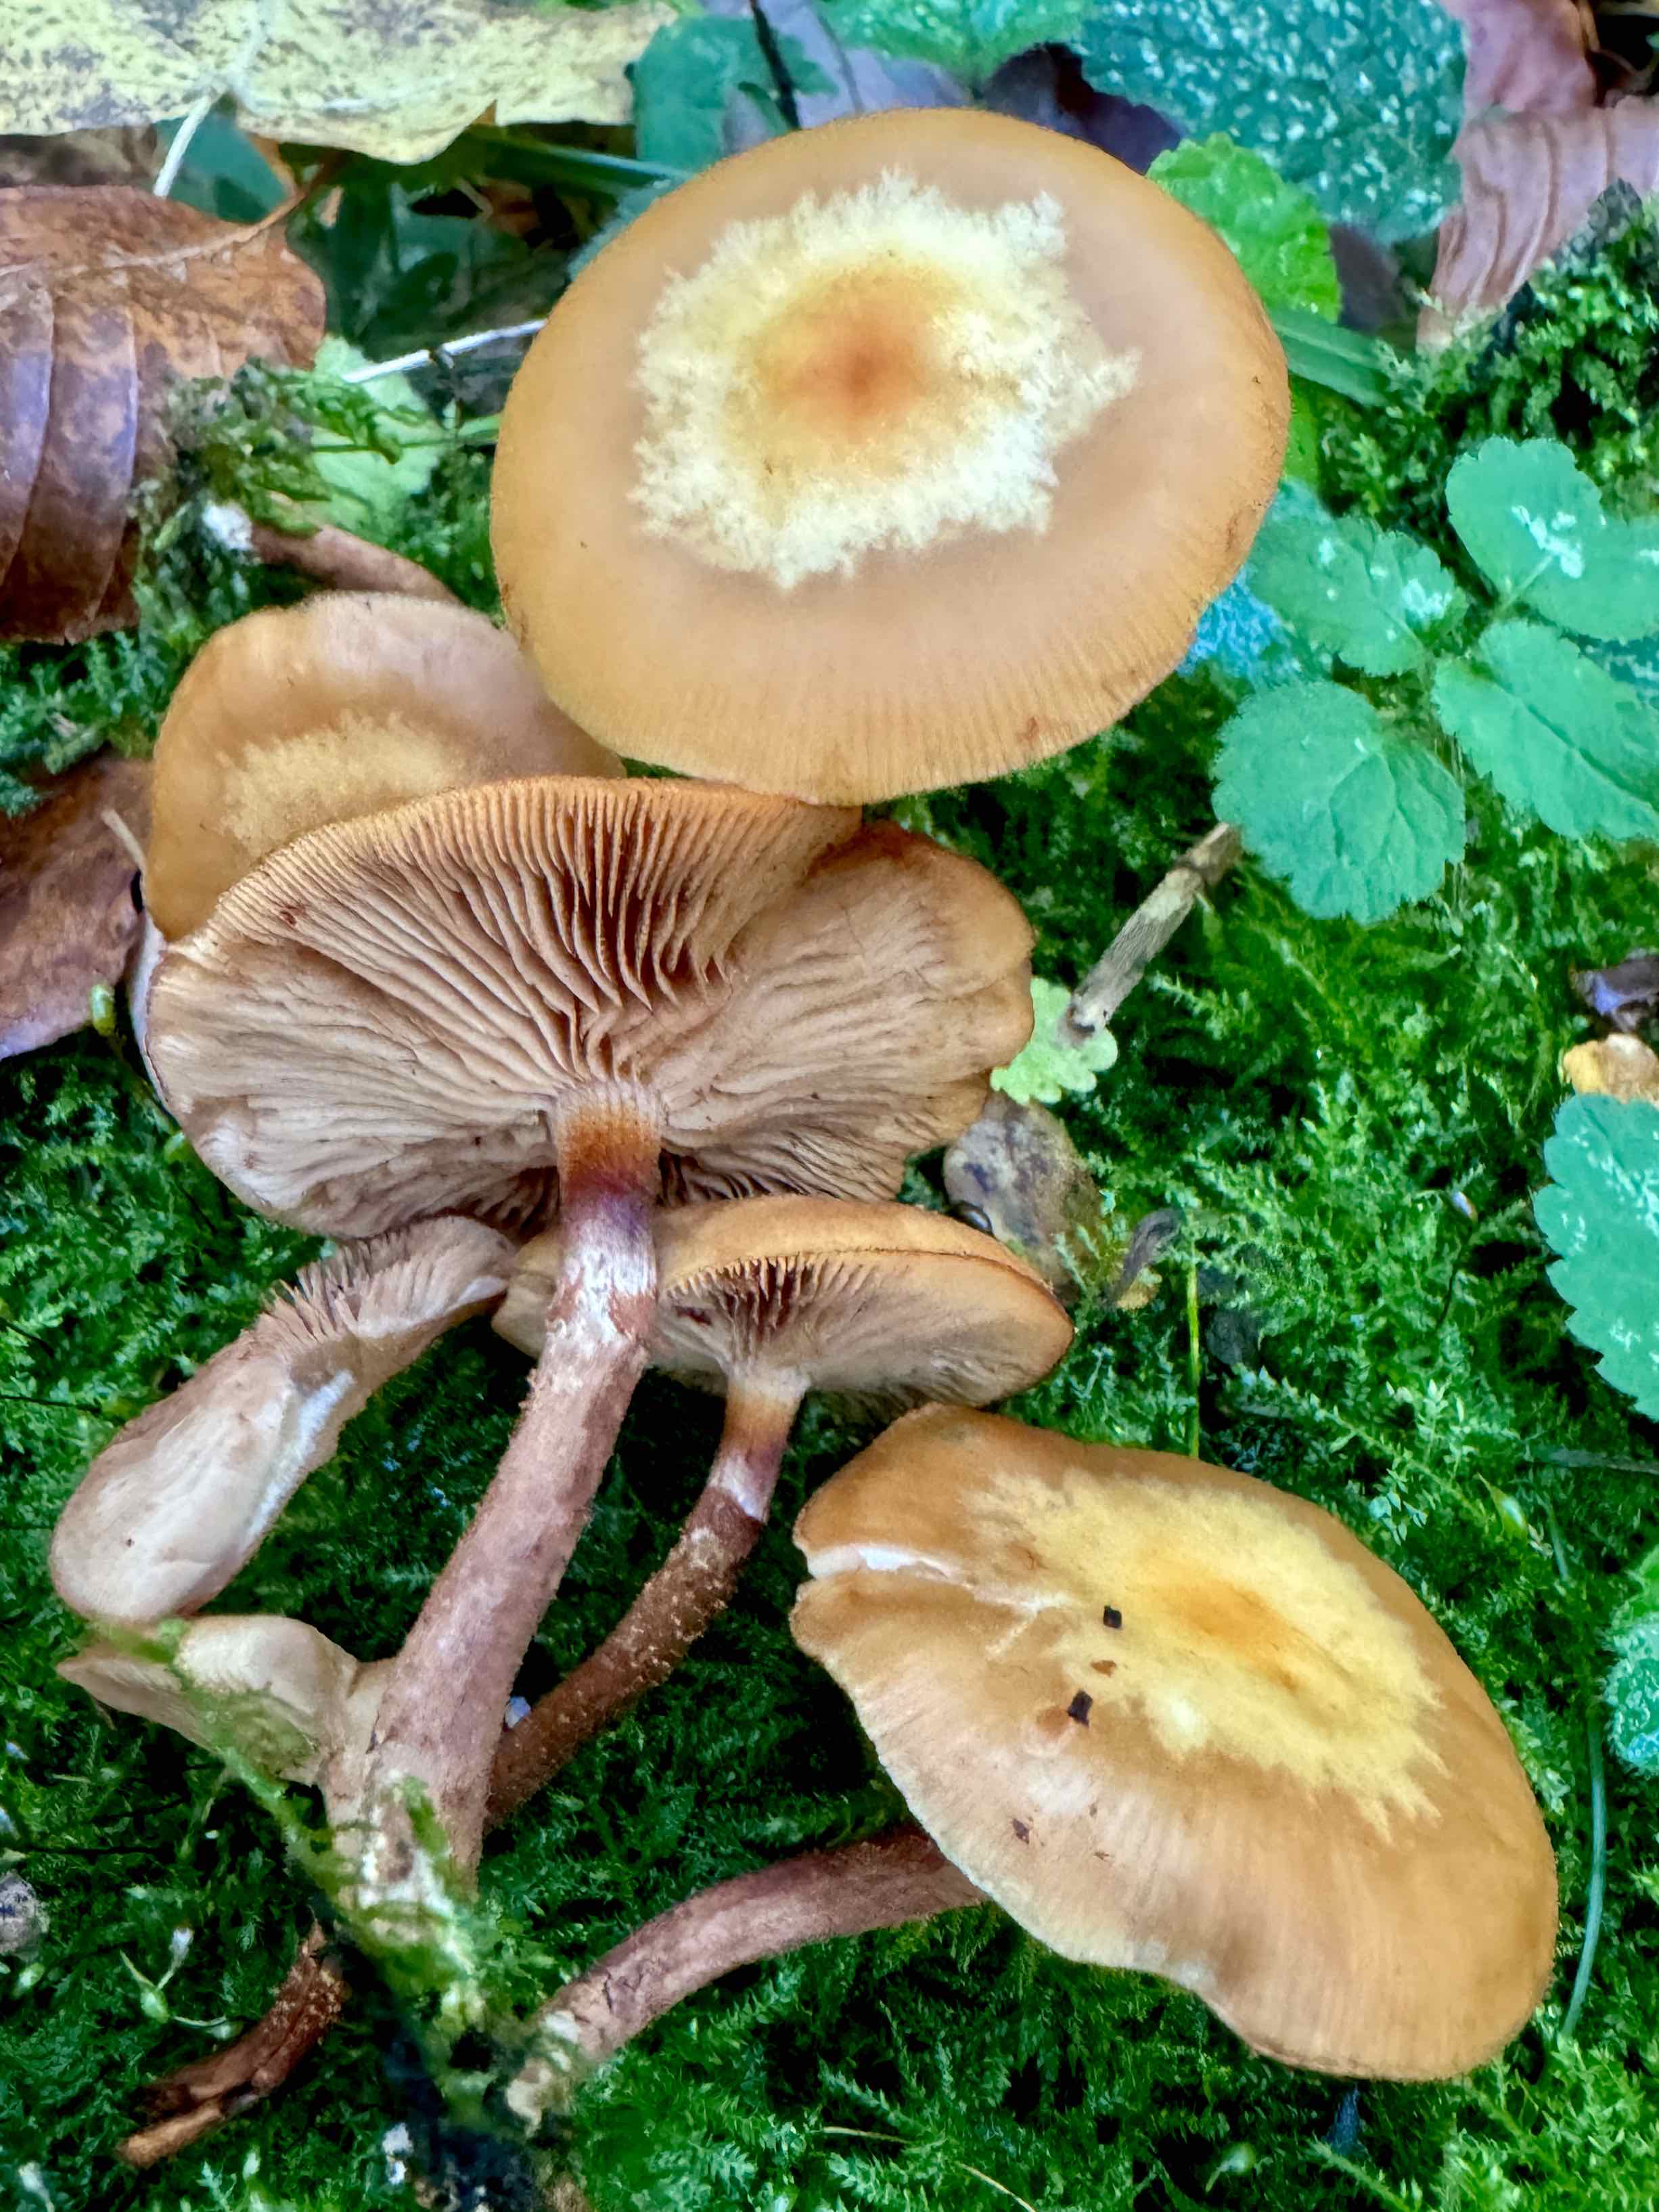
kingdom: Fungi
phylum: Basidiomycota
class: Agaricomycetes
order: Agaricales
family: Strophariaceae
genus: Kuehneromyces
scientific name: Kuehneromyces mutabilis
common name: foranderlig skælhat
